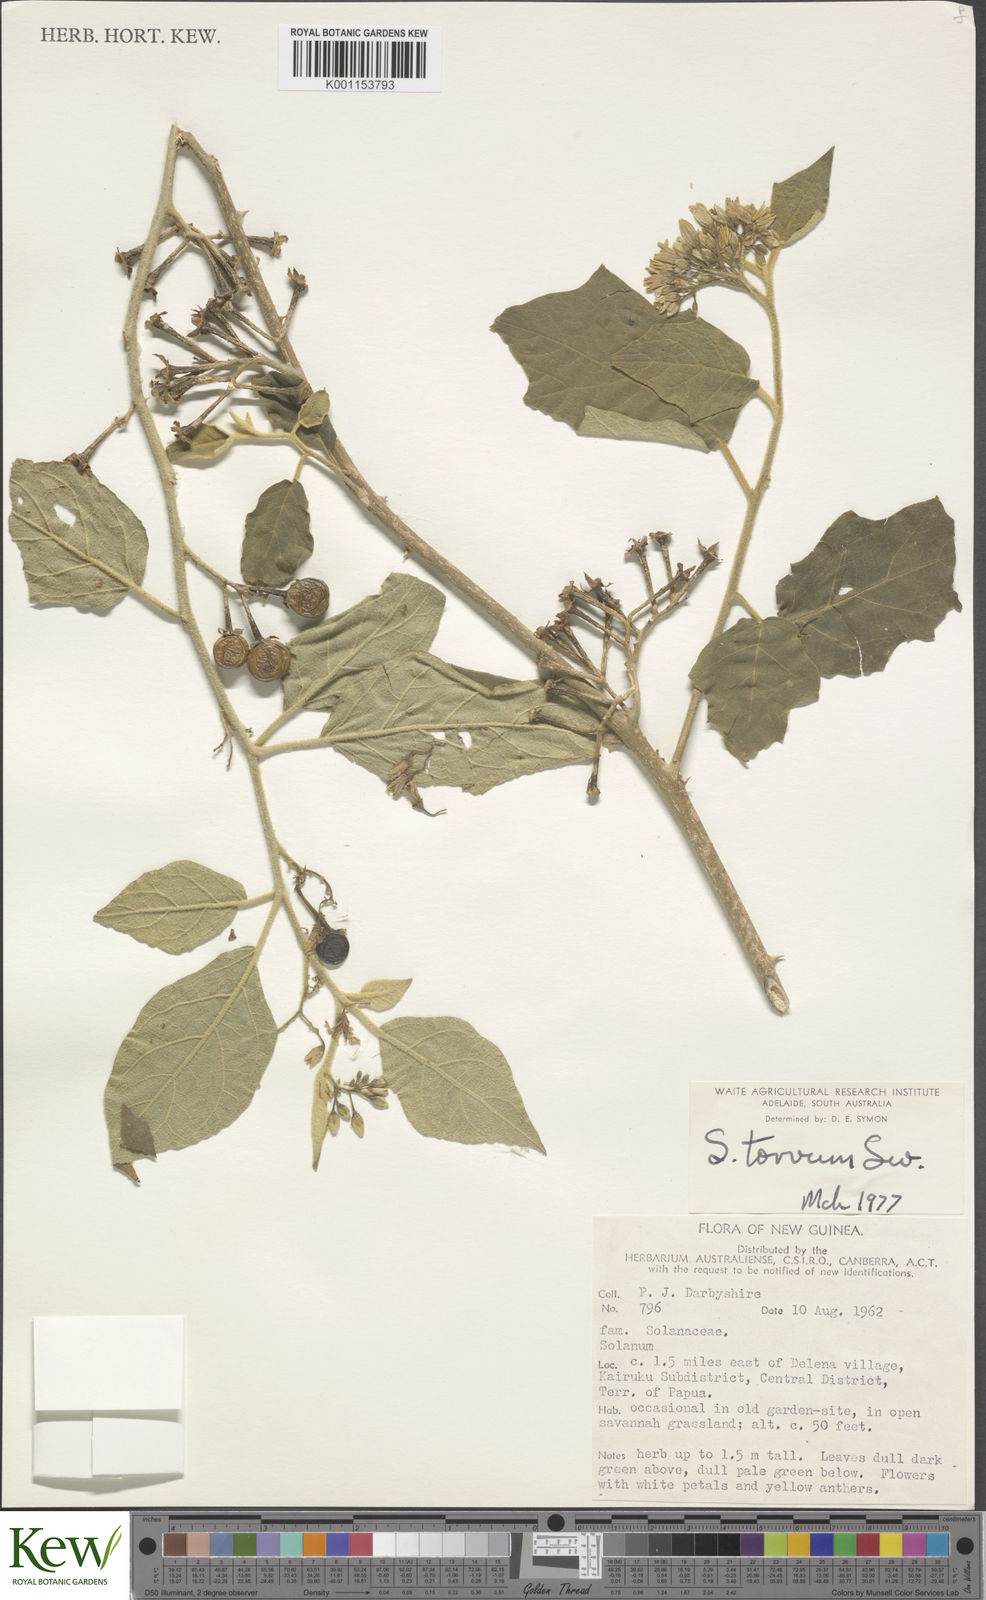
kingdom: Plantae
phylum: Tracheophyta
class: Magnoliopsida
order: Solanales
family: Solanaceae
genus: Solanum
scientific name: Solanum torvum
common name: Turkey berry
